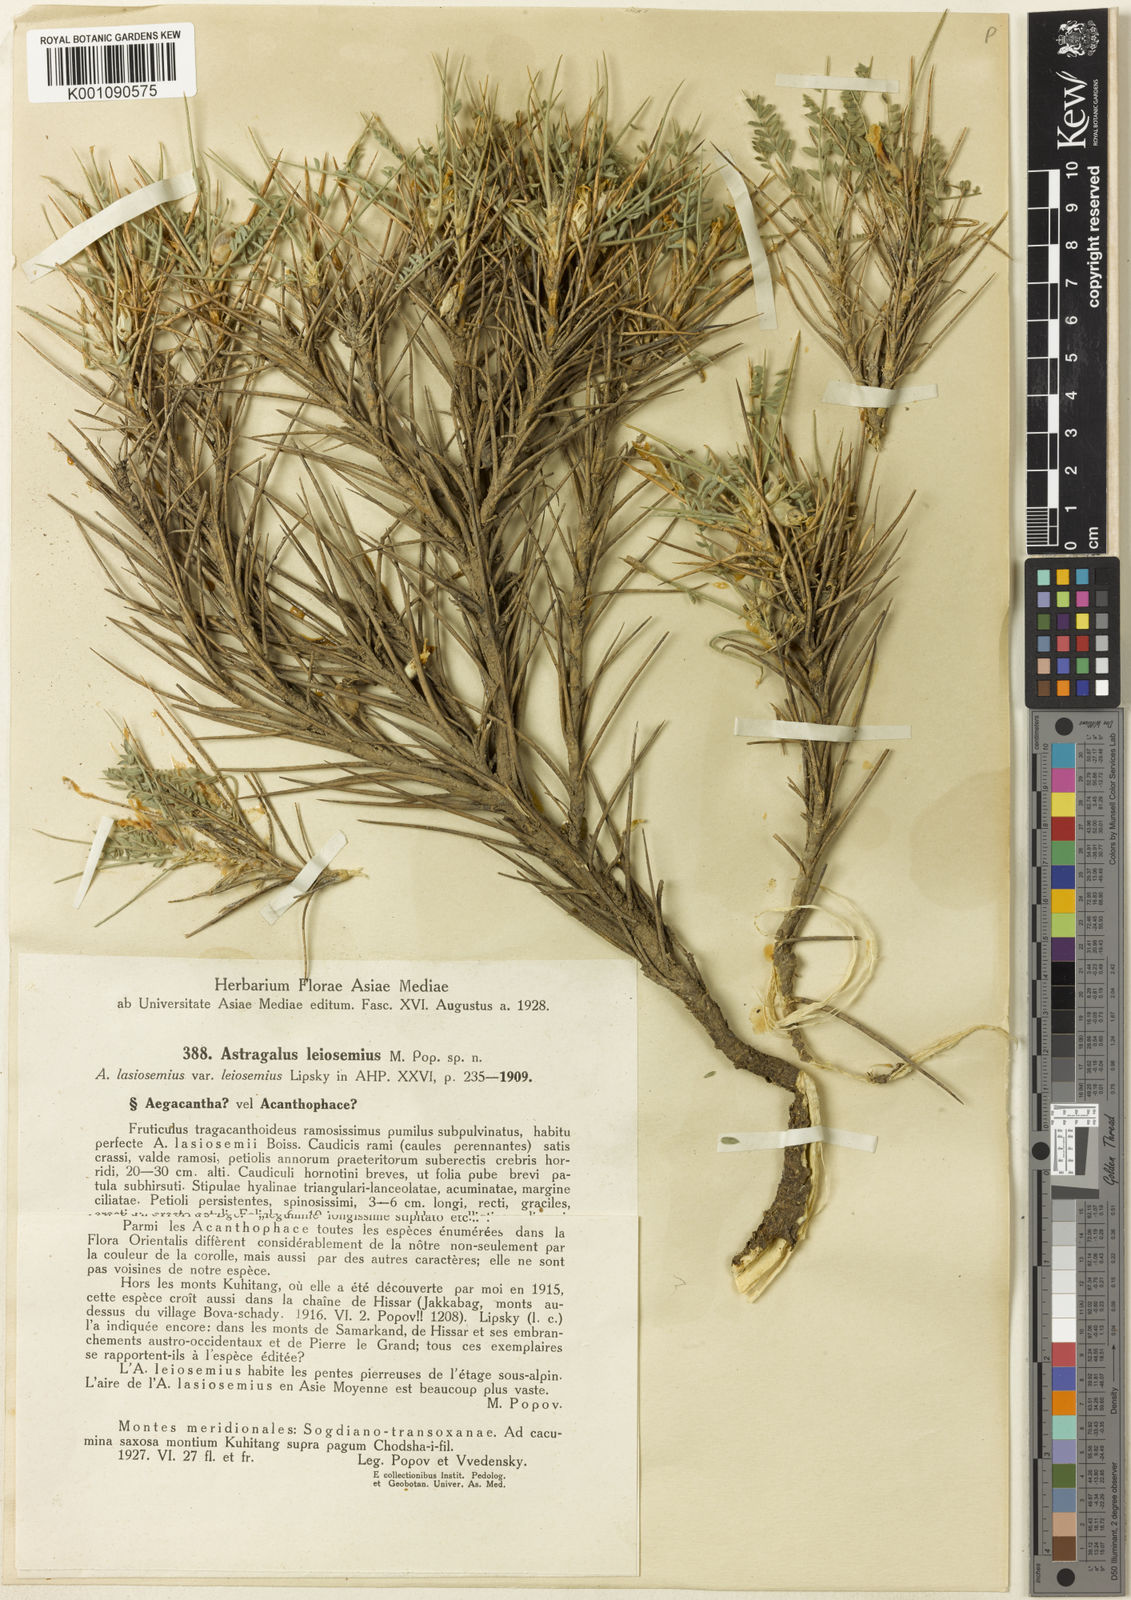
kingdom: Plantae
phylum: Tracheophyta
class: Magnoliopsida
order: Fabales
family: Fabaceae
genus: Astragalus
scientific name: Astragalus
